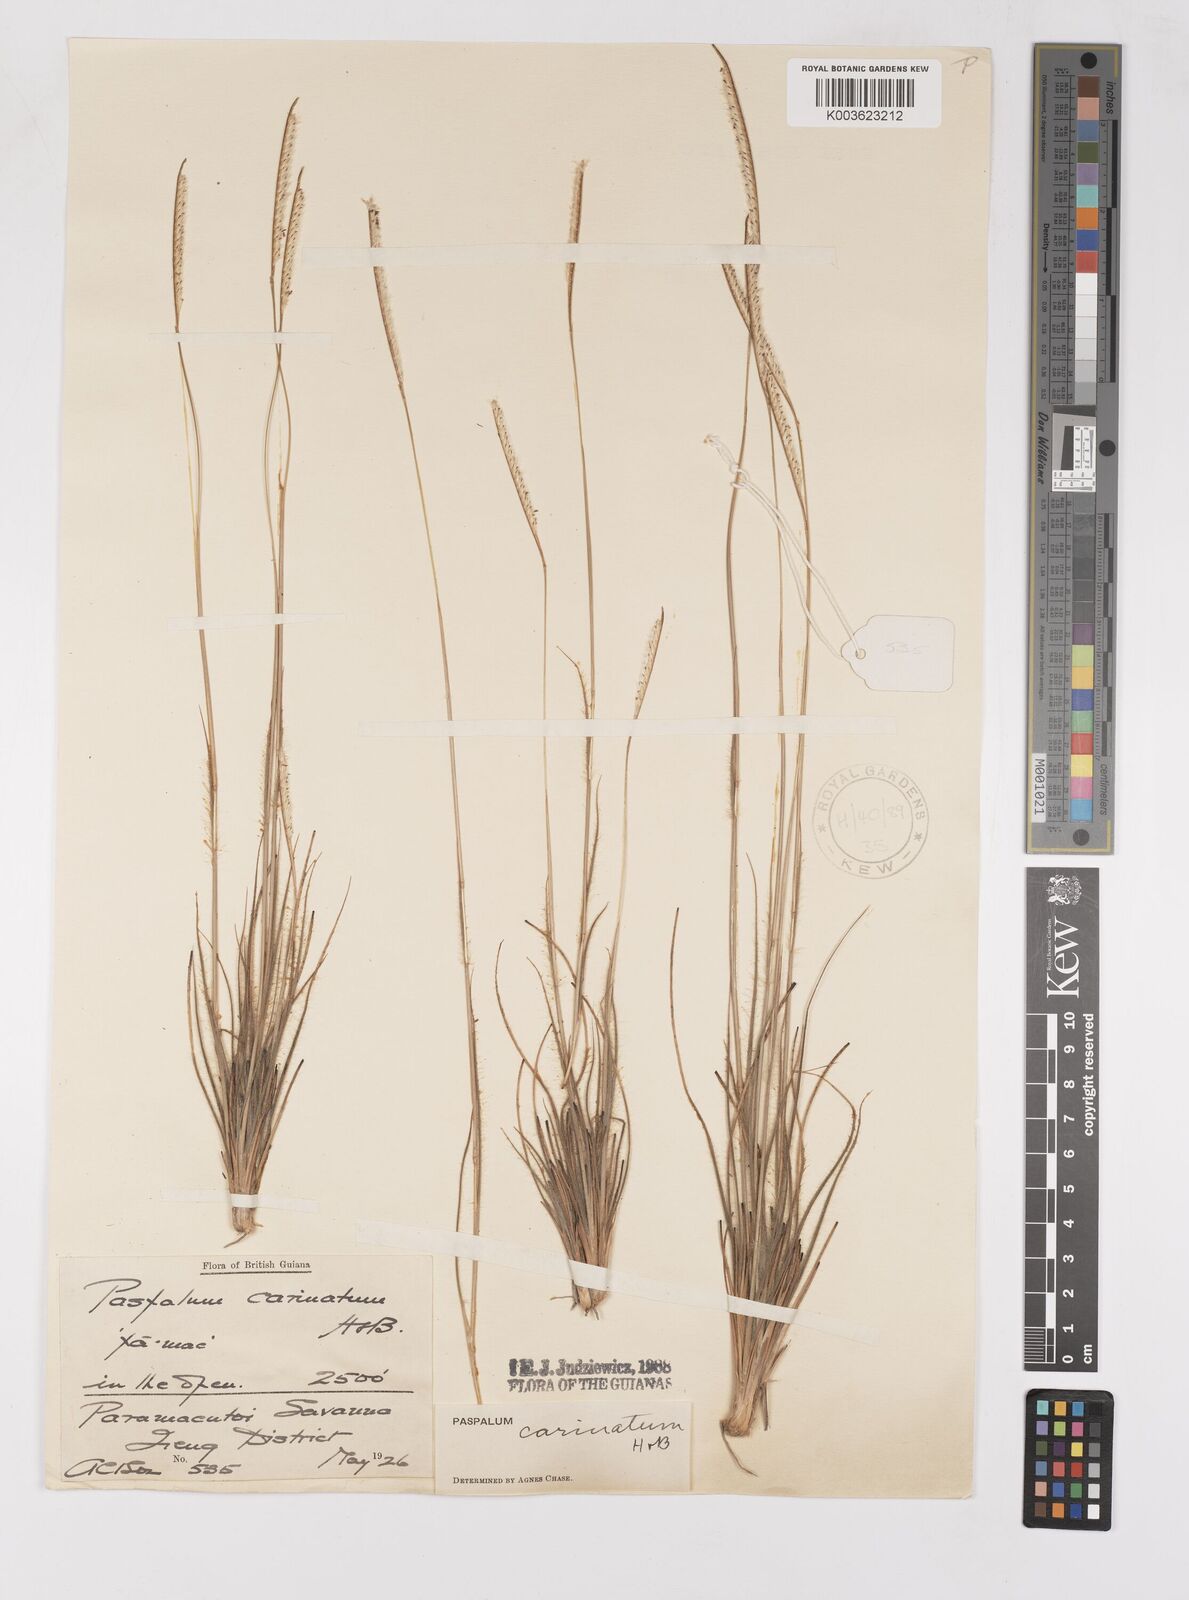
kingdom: Plantae
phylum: Tracheophyta
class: Liliopsida
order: Poales
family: Poaceae
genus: Paspalum
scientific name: Paspalum carinatum
